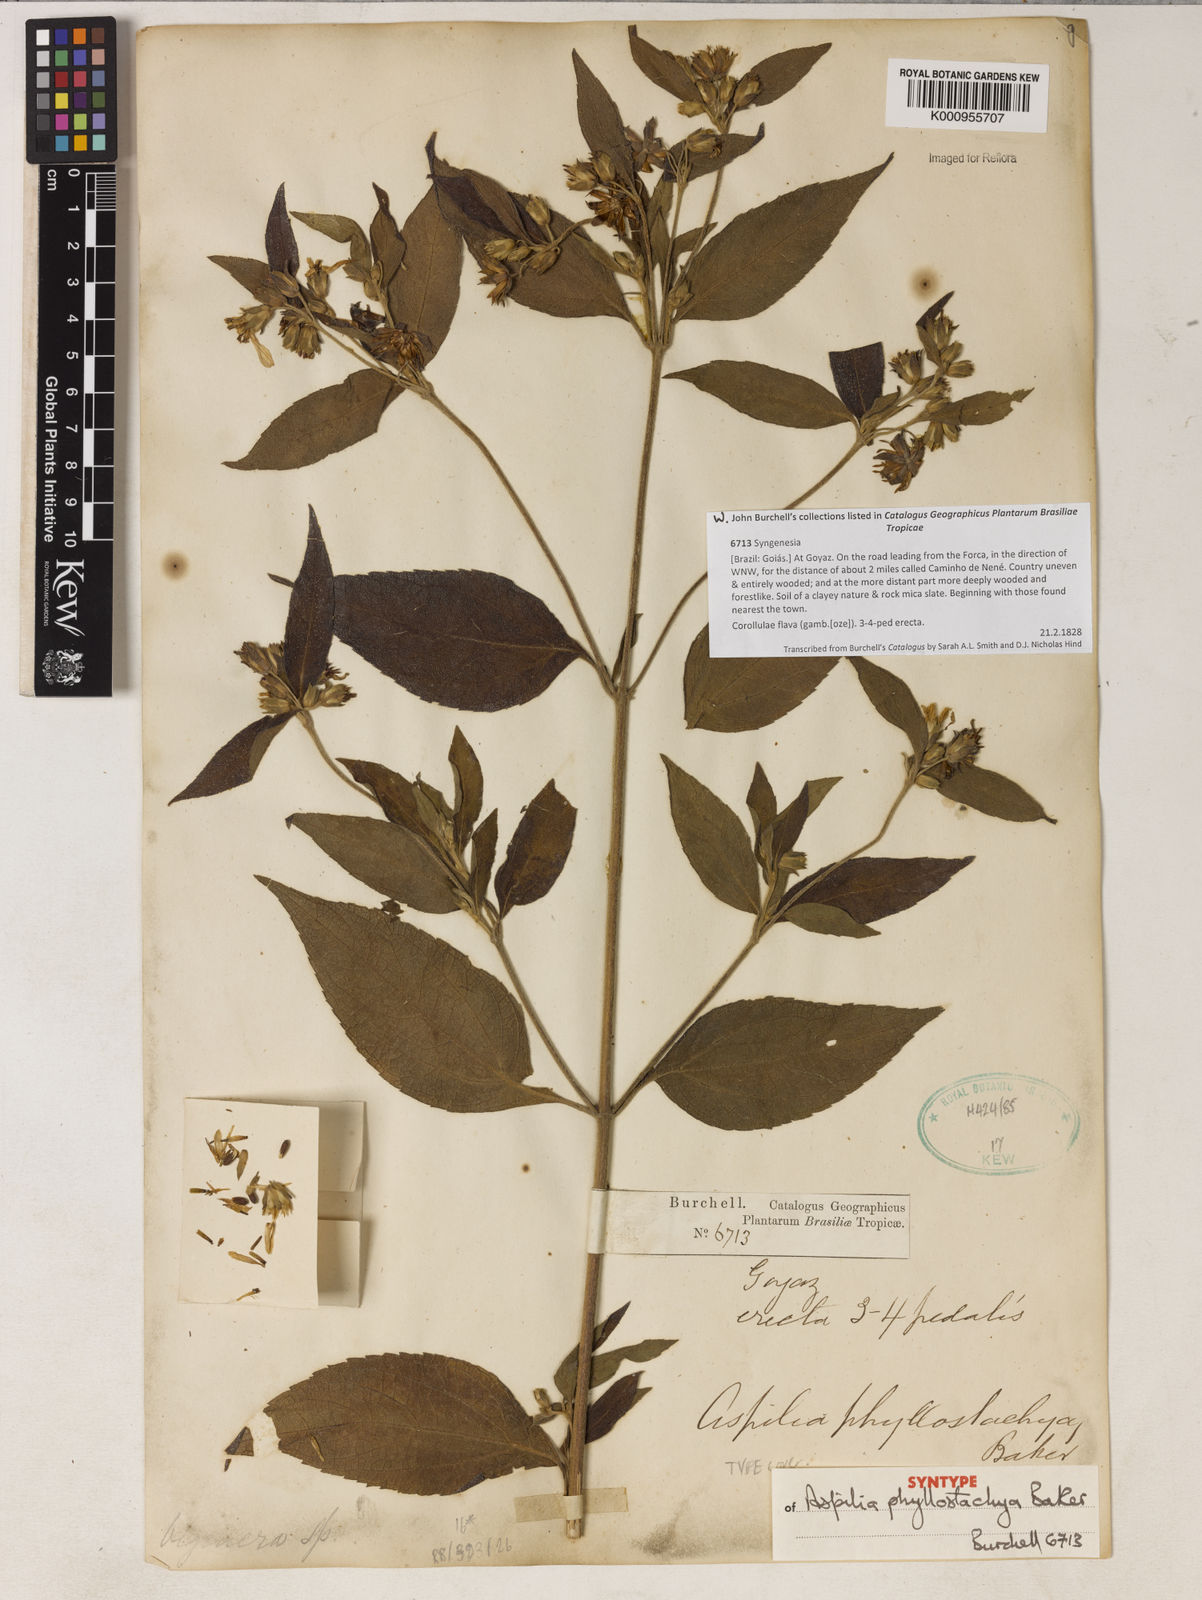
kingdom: Plantae
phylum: Tracheophyta
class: Magnoliopsida
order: Asterales
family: Asteraceae
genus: Wedelia
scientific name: Wedelia phyllostachya
